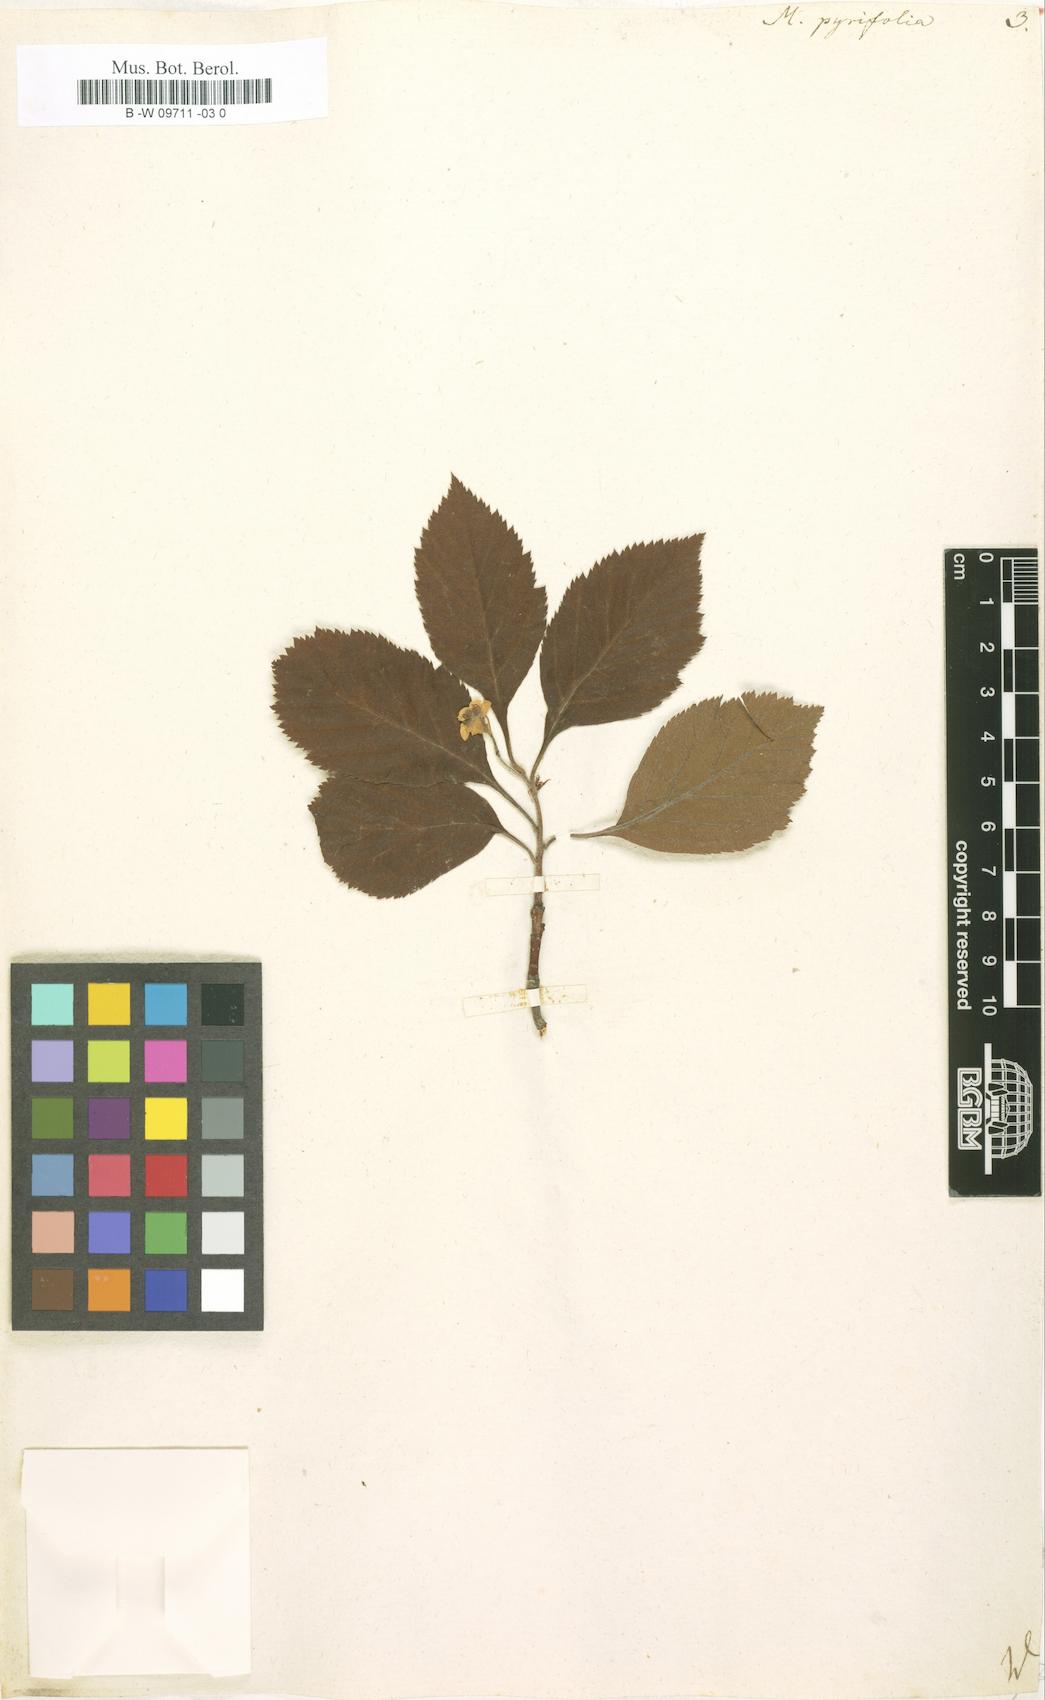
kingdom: Plantae
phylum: Tracheophyta
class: Magnoliopsida
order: Rosales
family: Rosaceae
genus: Crataegus
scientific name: Crataegus
